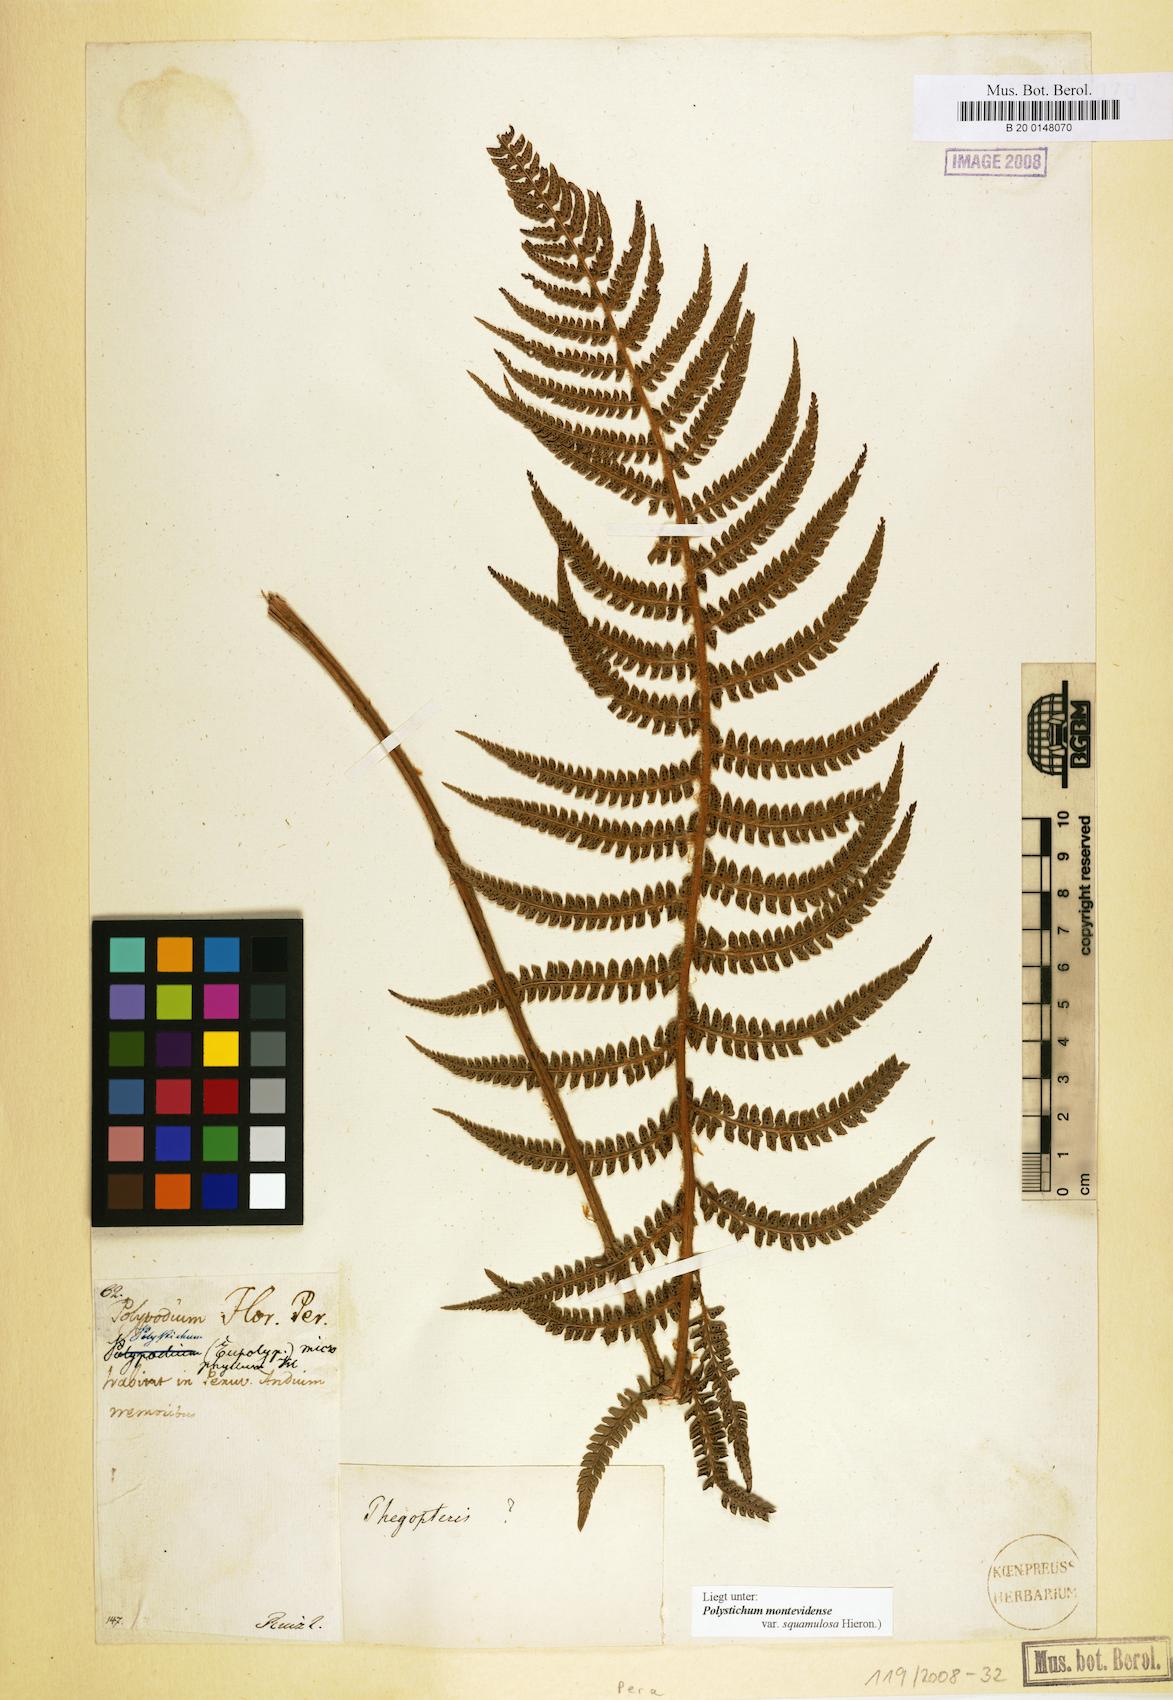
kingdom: Plantae
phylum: Tracheophyta
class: Polypodiopsida
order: Polypodiales
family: Dryopteridaceae
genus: Polystichum
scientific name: Polystichum montevidense
